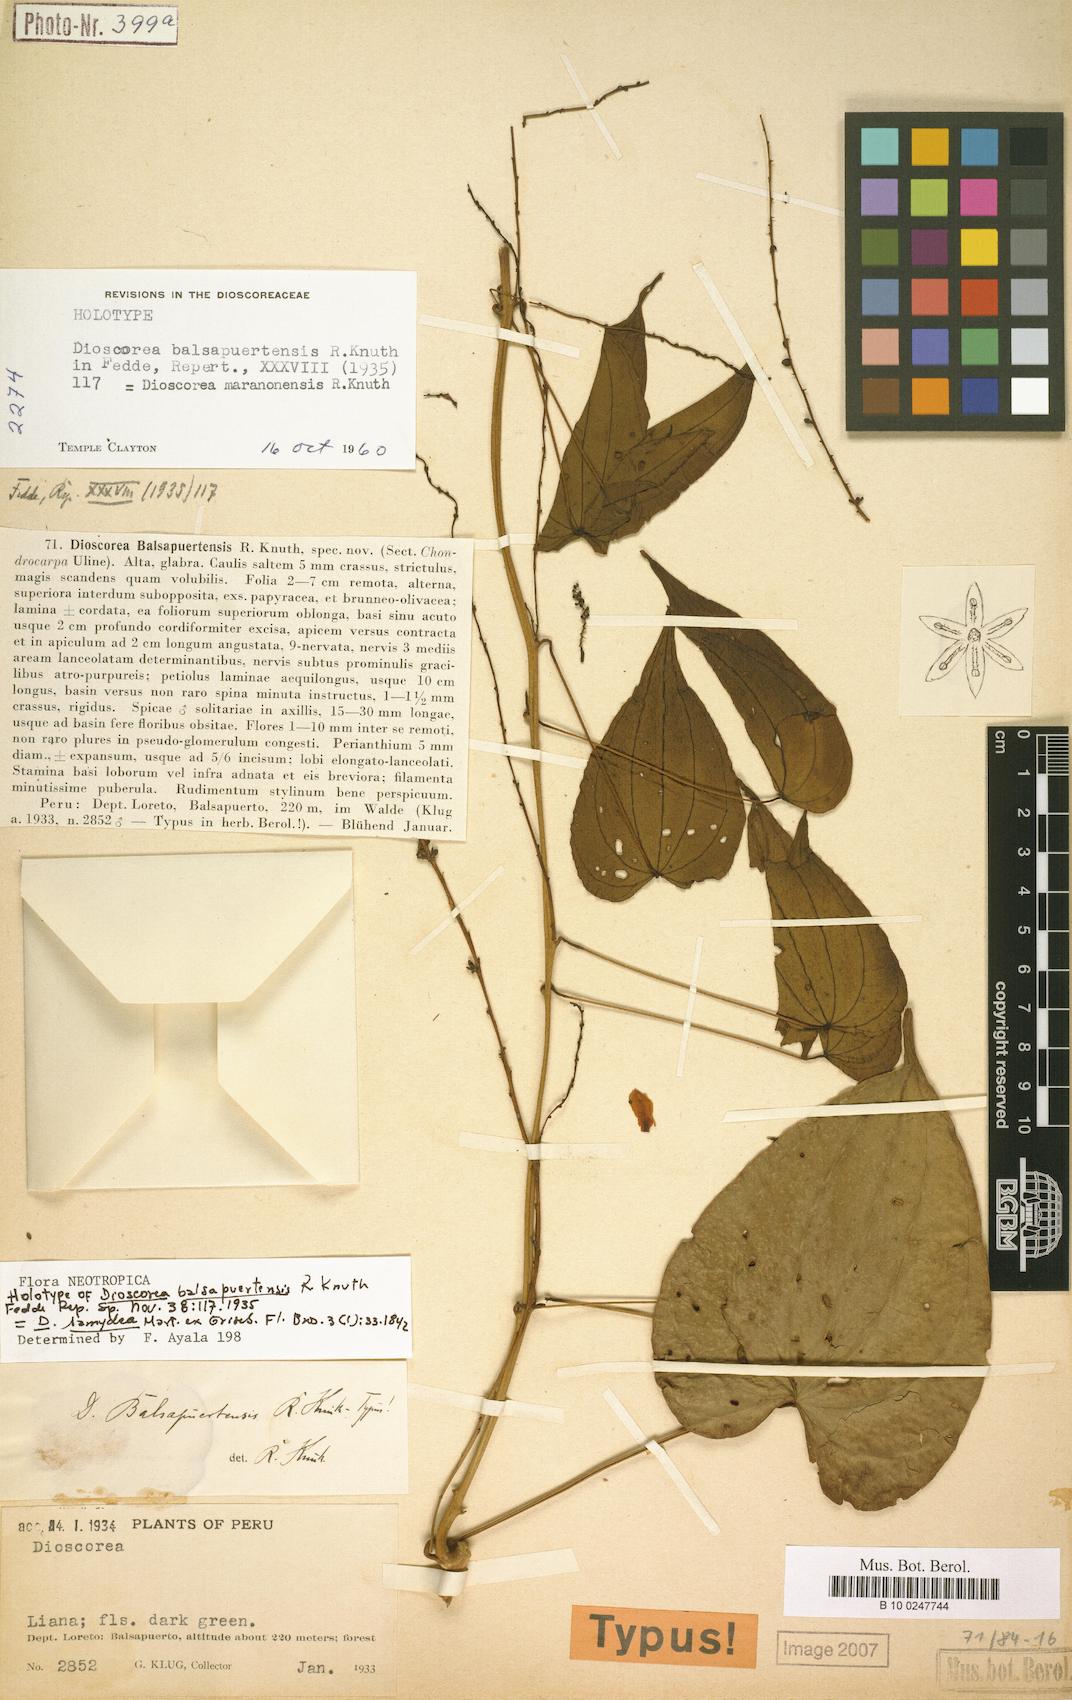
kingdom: Plantae
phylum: Tracheophyta
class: Liliopsida
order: Dioscoreales
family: Dioscoreaceae
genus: Dioscorea
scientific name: Dioscorea chondrocarpa
